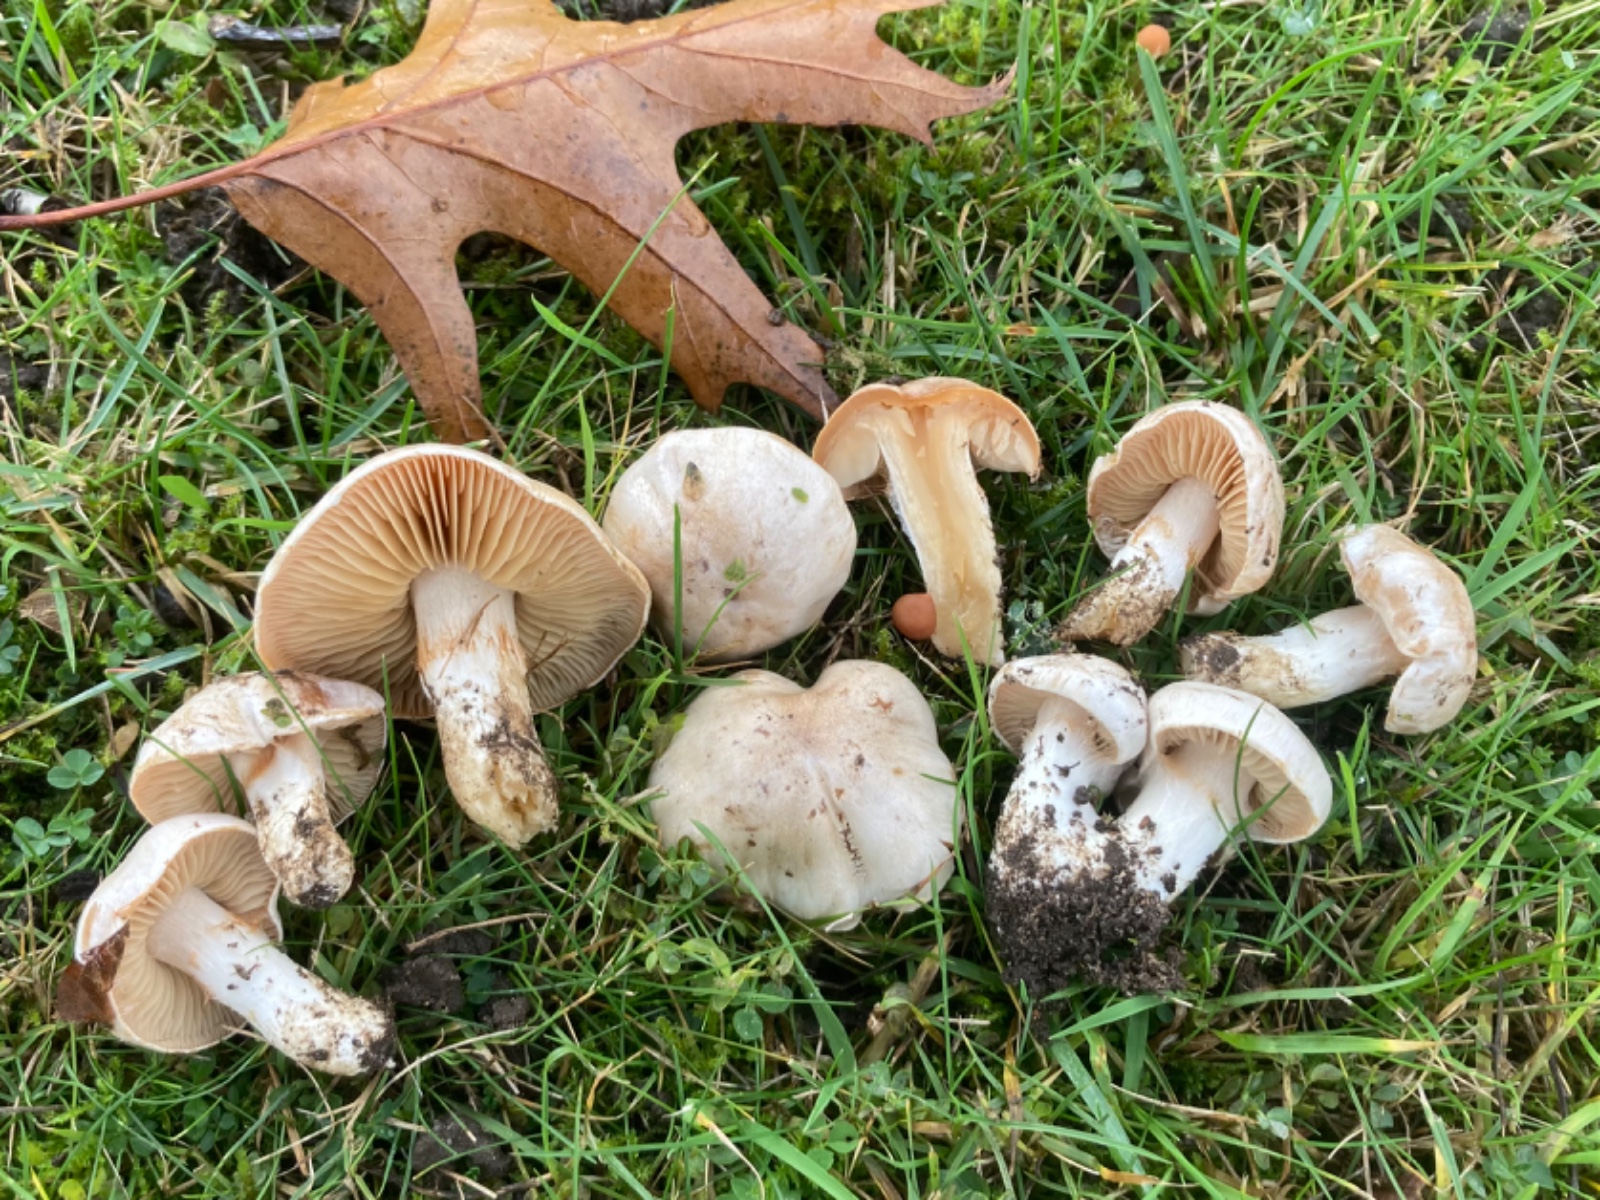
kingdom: Fungi
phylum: Basidiomycota
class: Agaricomycetes
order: Agaricales
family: Cortinariaceae
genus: Thaxterogaster
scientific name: Thaxterogaster
